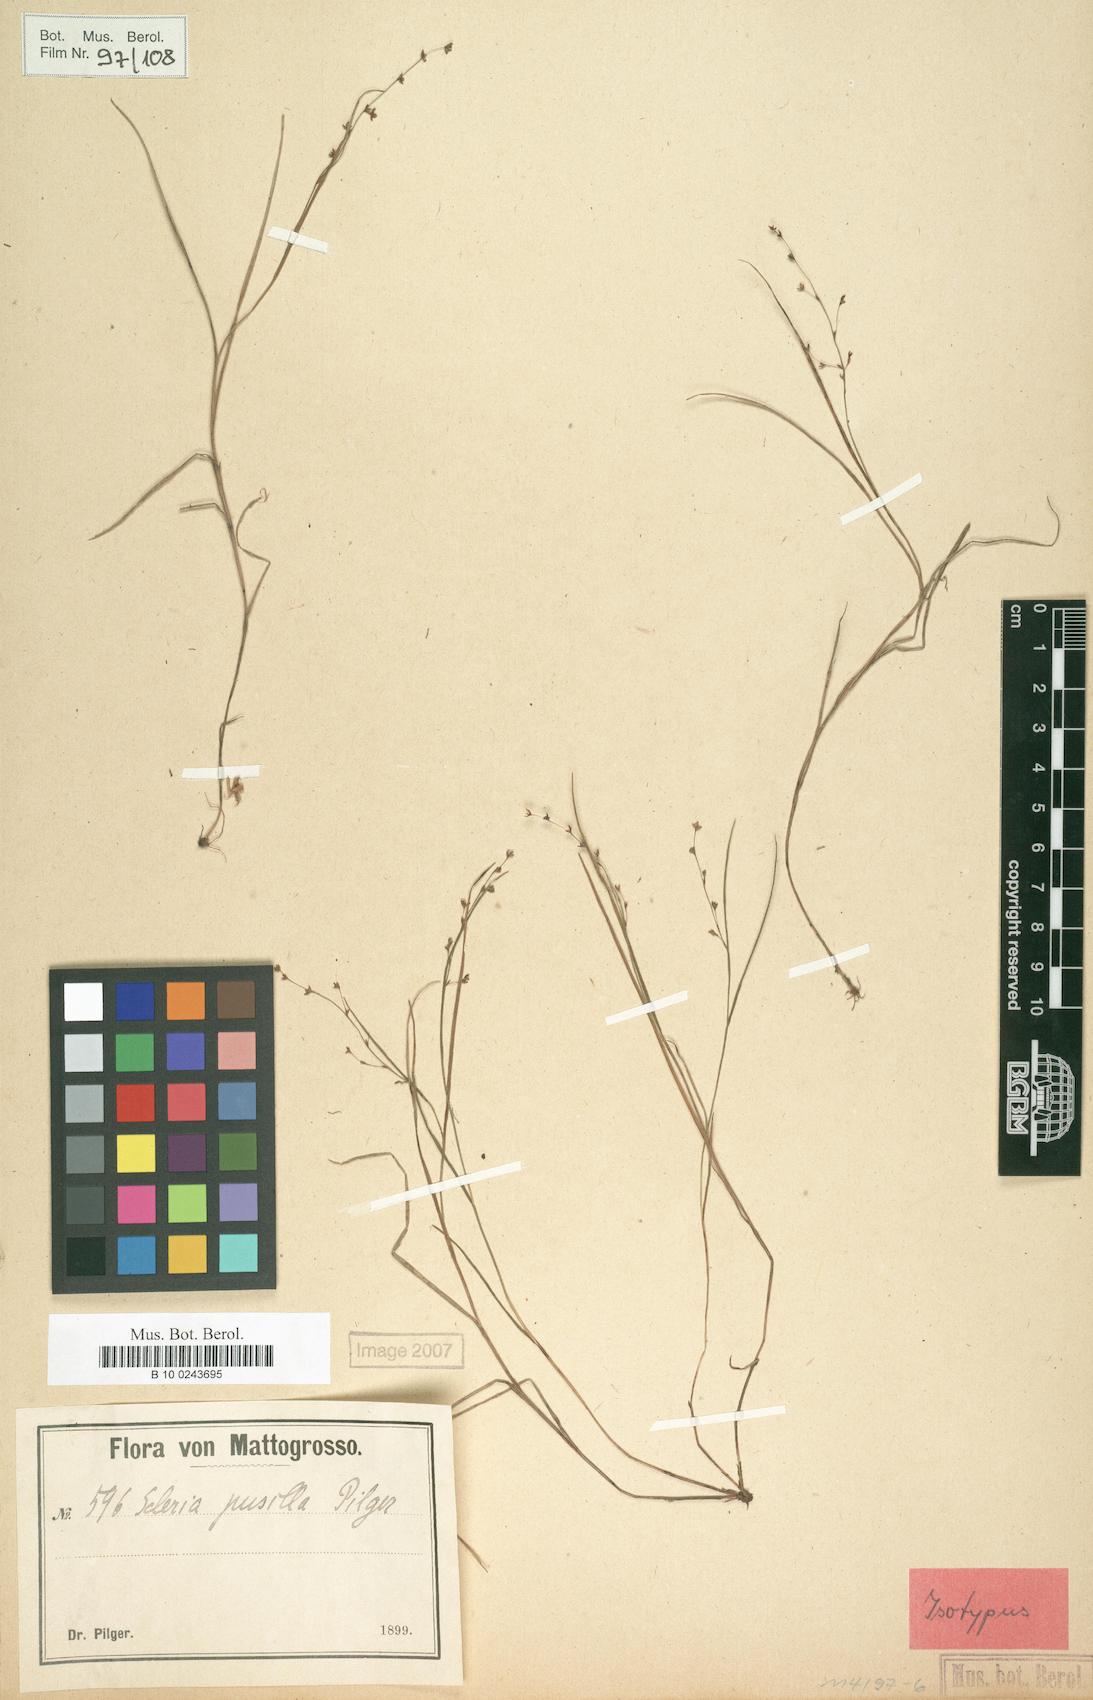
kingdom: Plantae
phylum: Tracheophyta
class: Liliopsida
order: Poales
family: Cyperaceae
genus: Scleria
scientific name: Scleria pusilla
